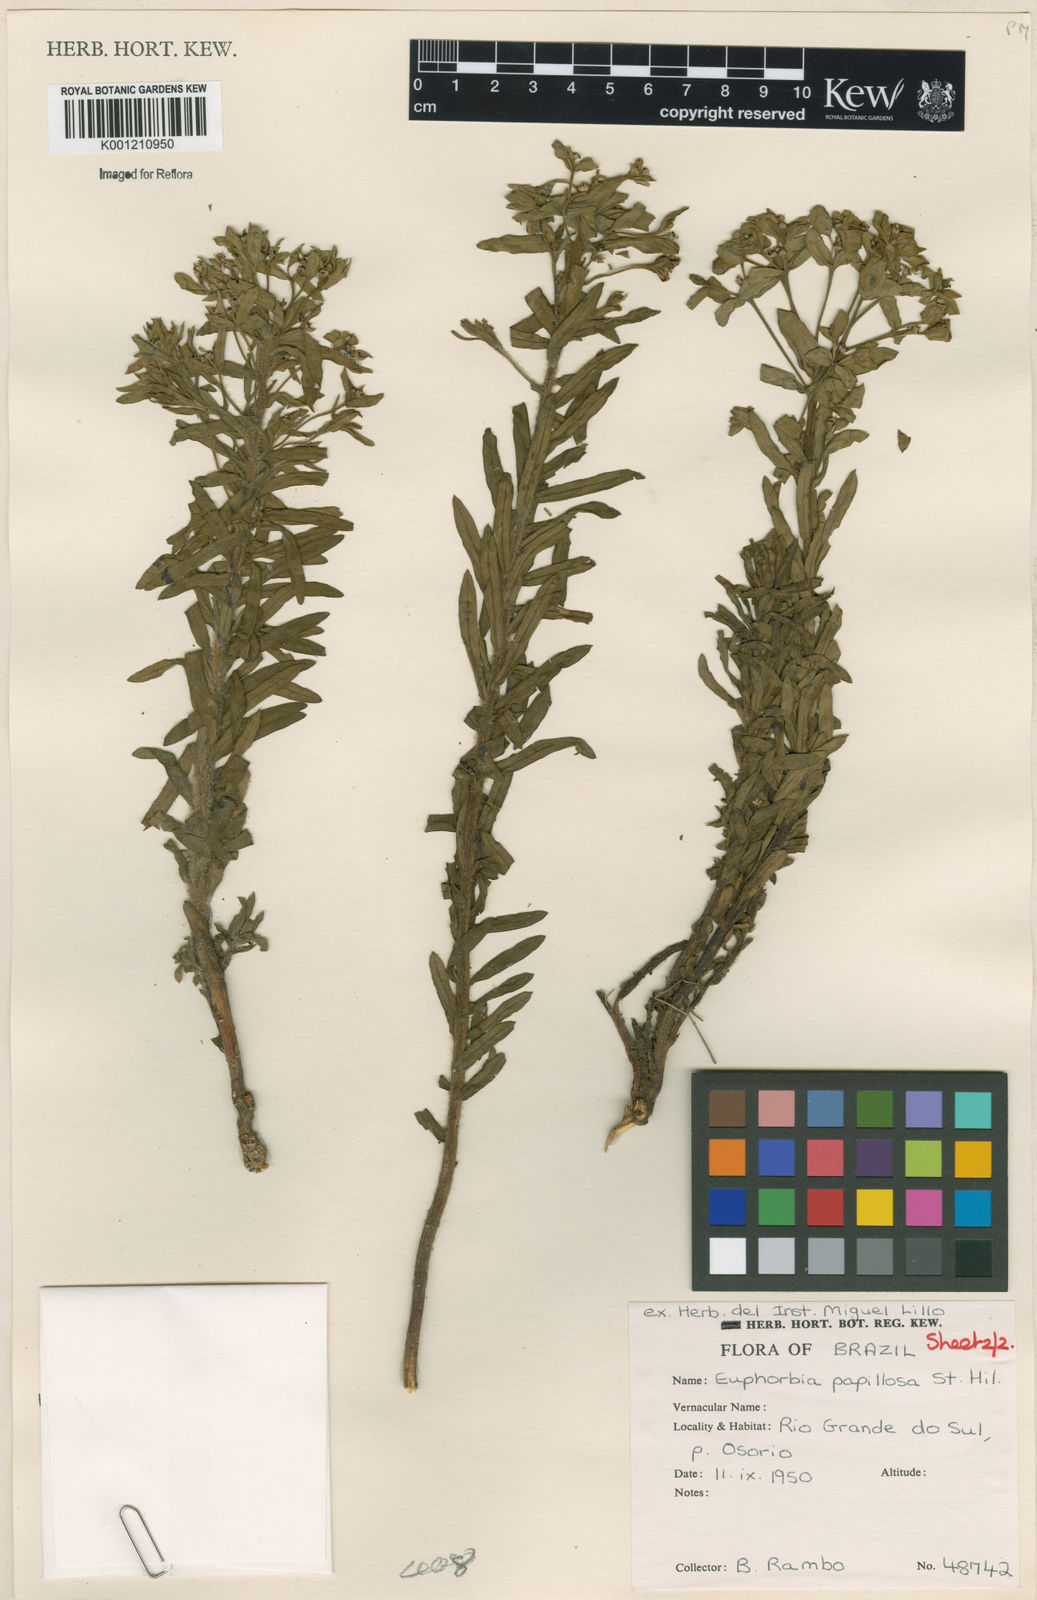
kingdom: Plantae
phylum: Tracheophyta
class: Magnoliopsida
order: Malpighiales
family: Euphorbiaceae
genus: Euphorbia
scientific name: Euphorbia papillosa
